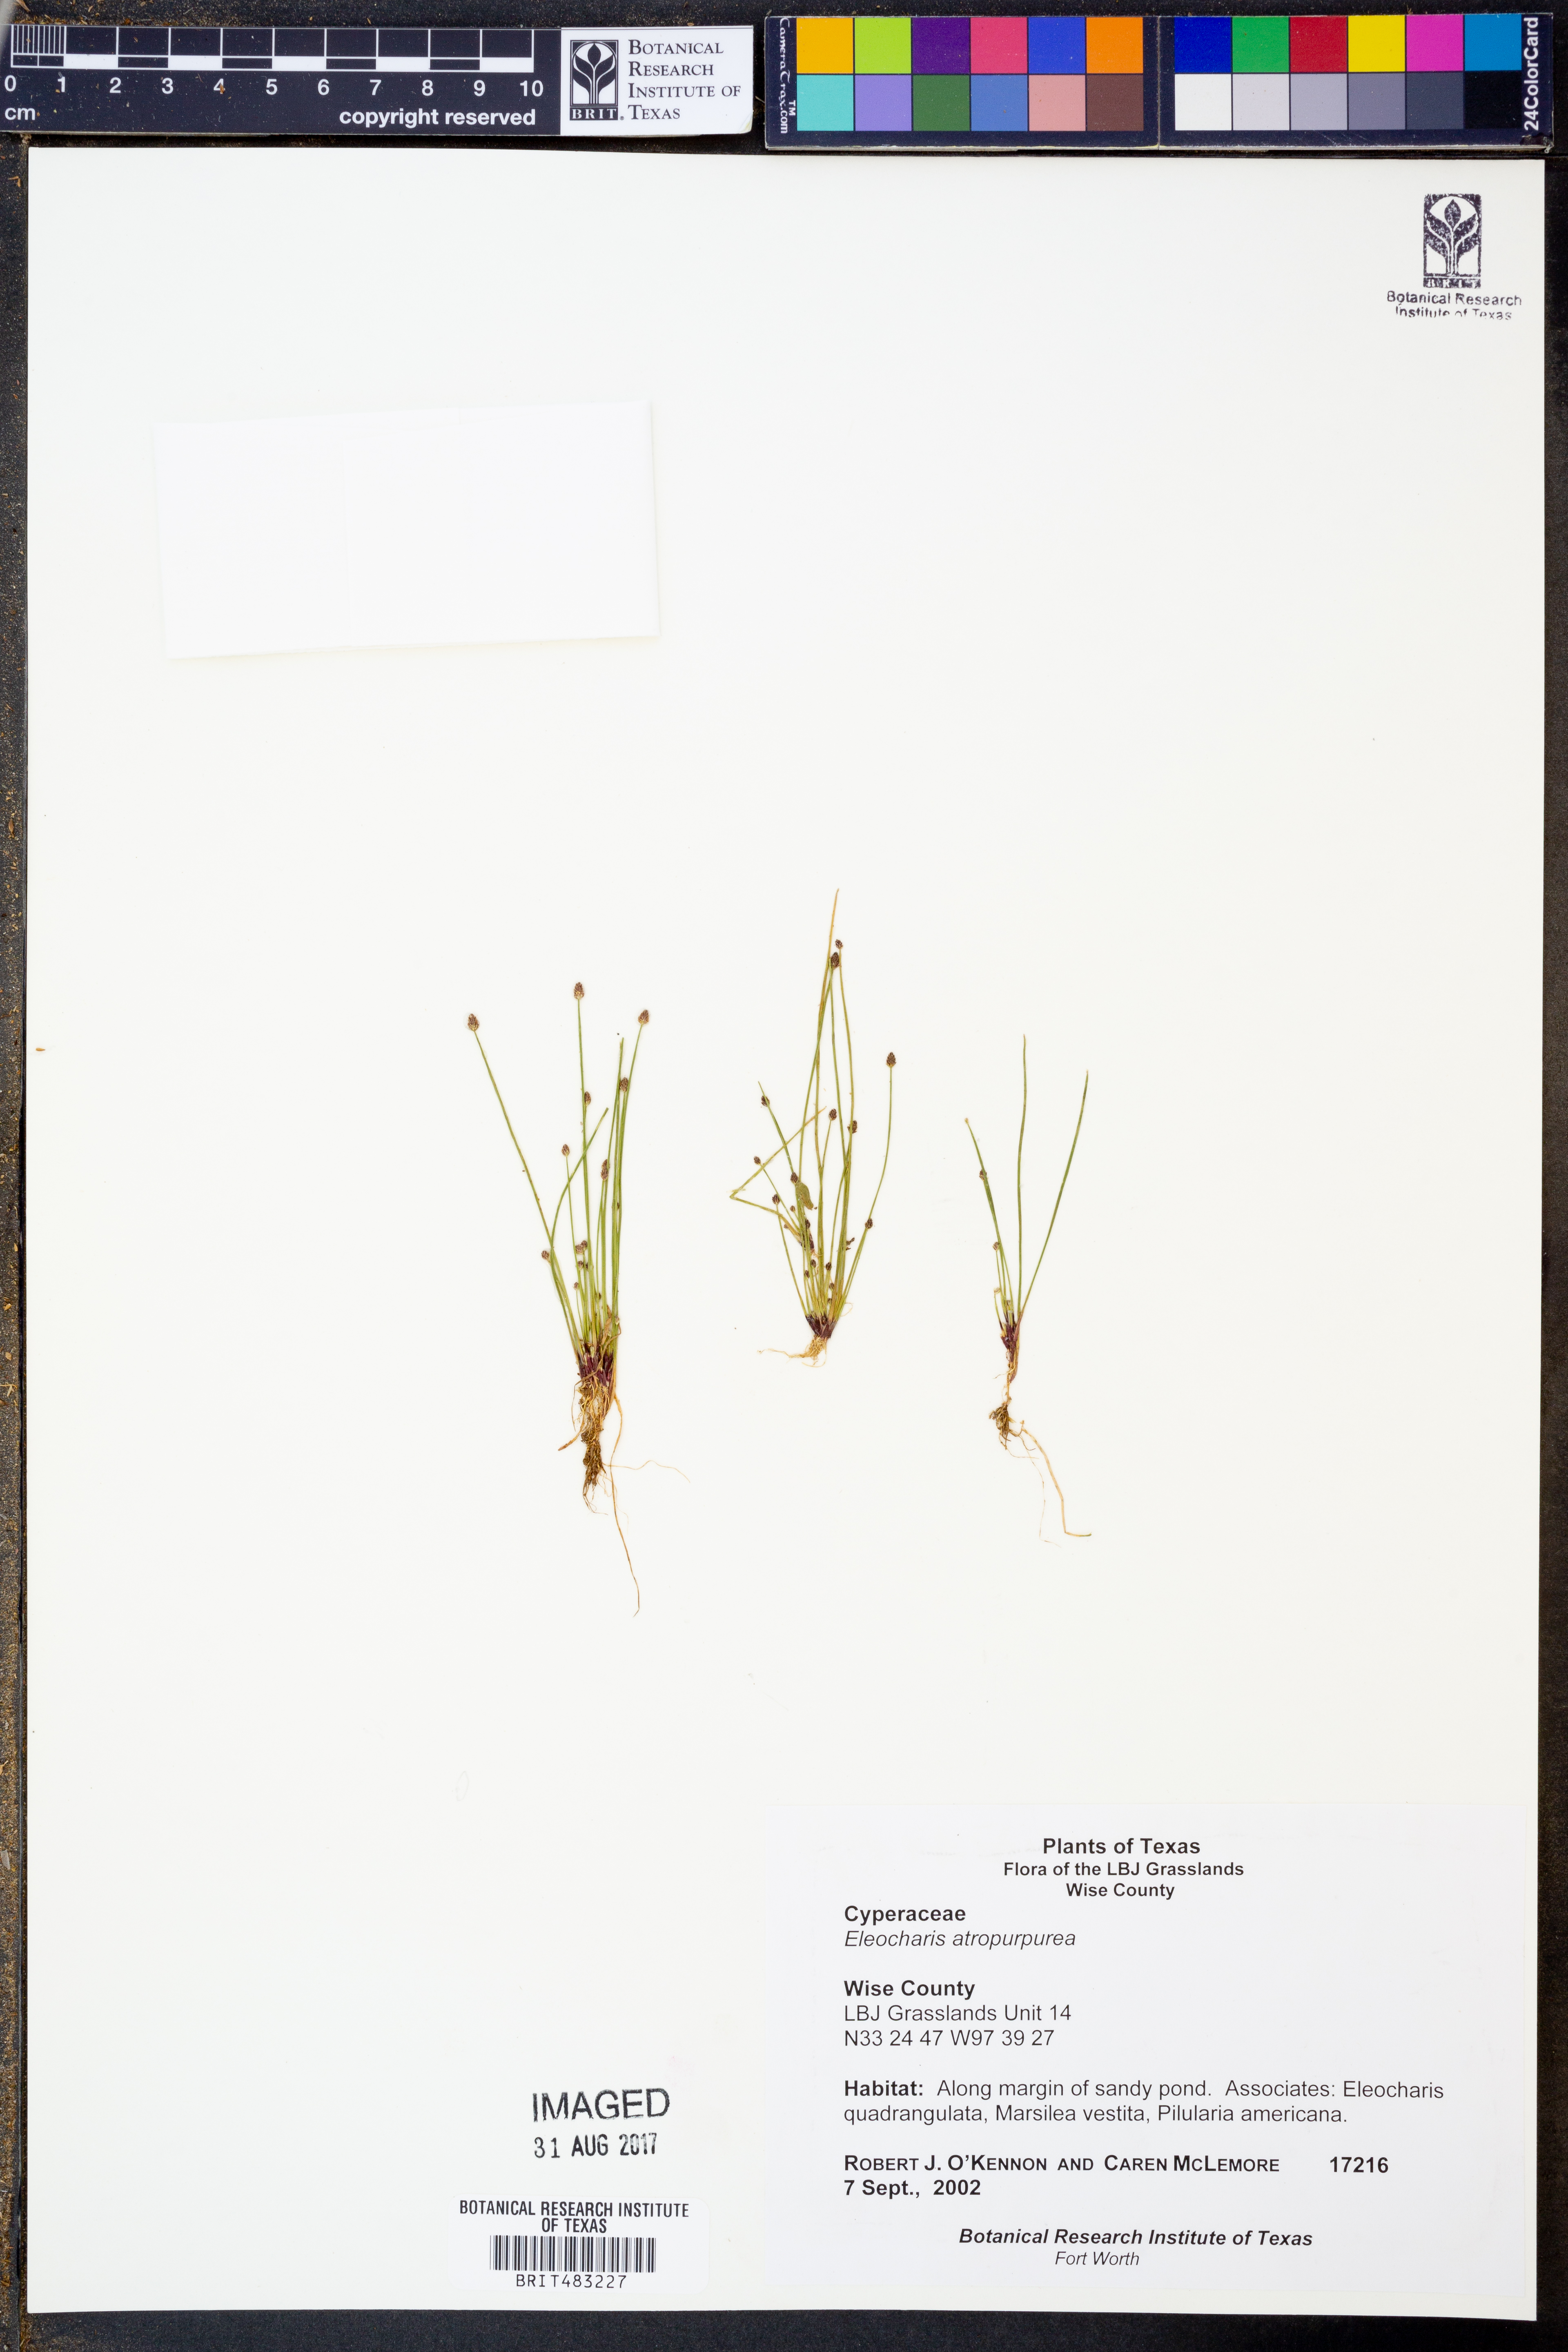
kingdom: Plantae
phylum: Tracheophyta
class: Liliopsida
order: Poales
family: Cyperaceae
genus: Eleocharis
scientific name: Eleocharis atropurpurea
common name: Purple spikerush
